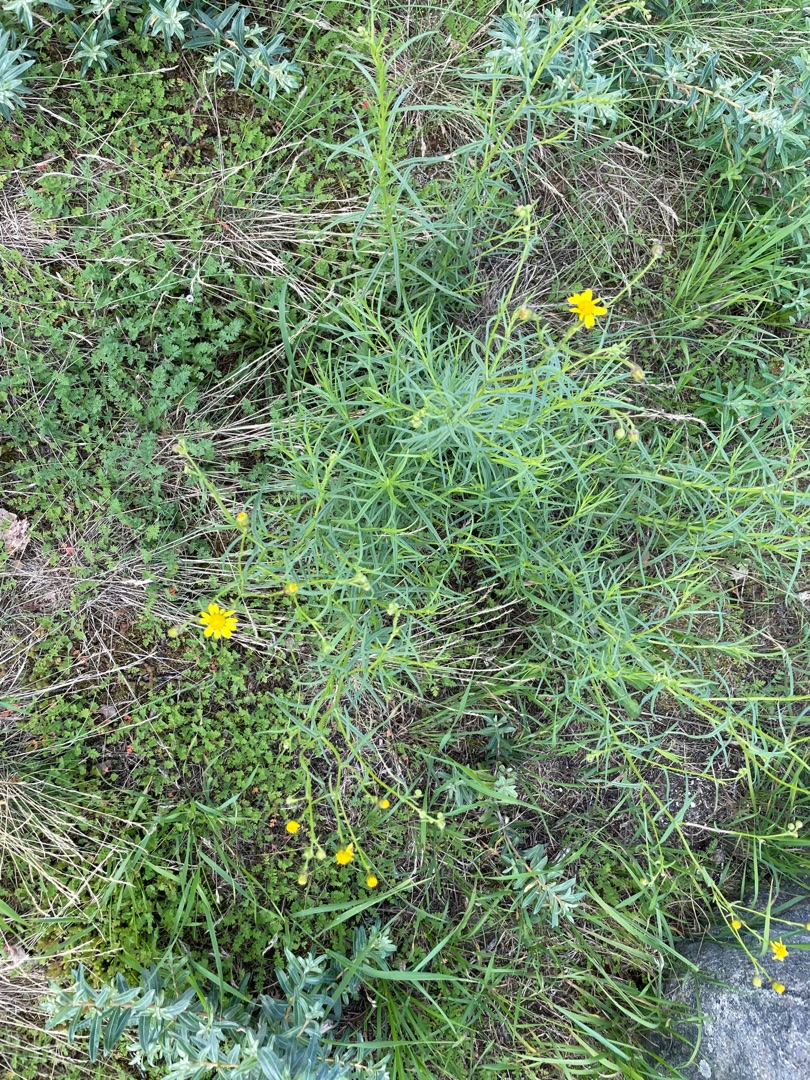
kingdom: Plantae
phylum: Tracheophyta
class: Magnoliopsida
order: Asterales
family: Asteraceae
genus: Senecio
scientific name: Senecio inaequidens
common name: Smalbladet brandbæger
